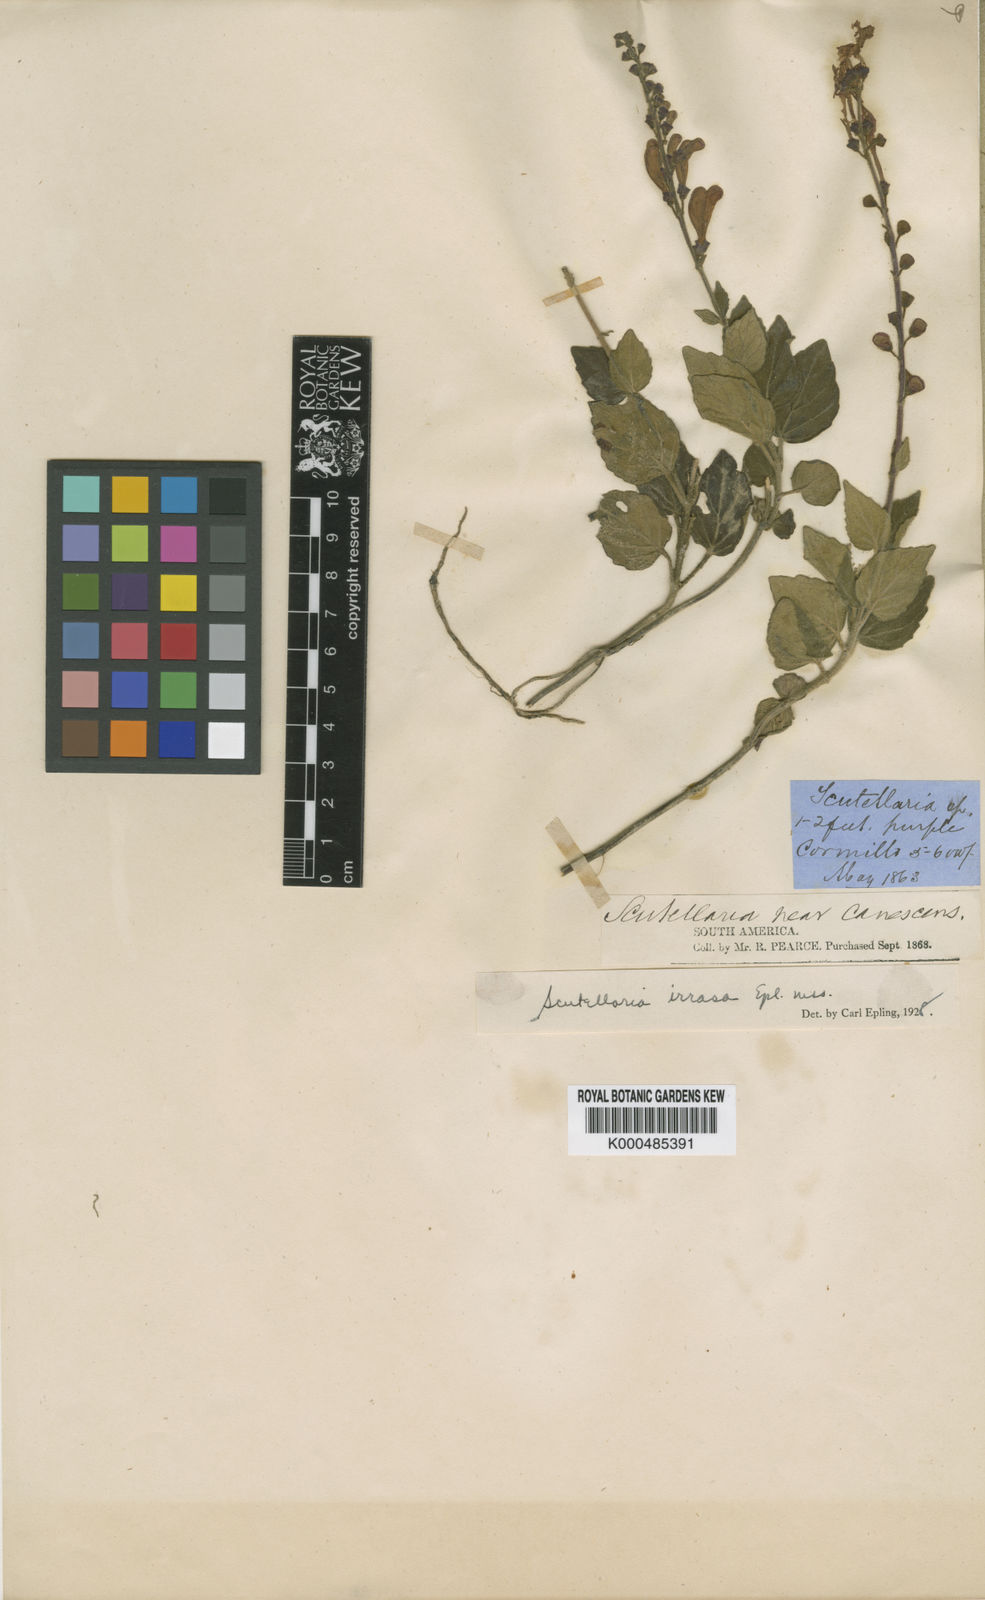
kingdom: Plantae
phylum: Tracheophyta
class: Magnoliopsida
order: Lamiales
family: Lamiaceae
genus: Scutellaria
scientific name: Scutellaria irrasa
